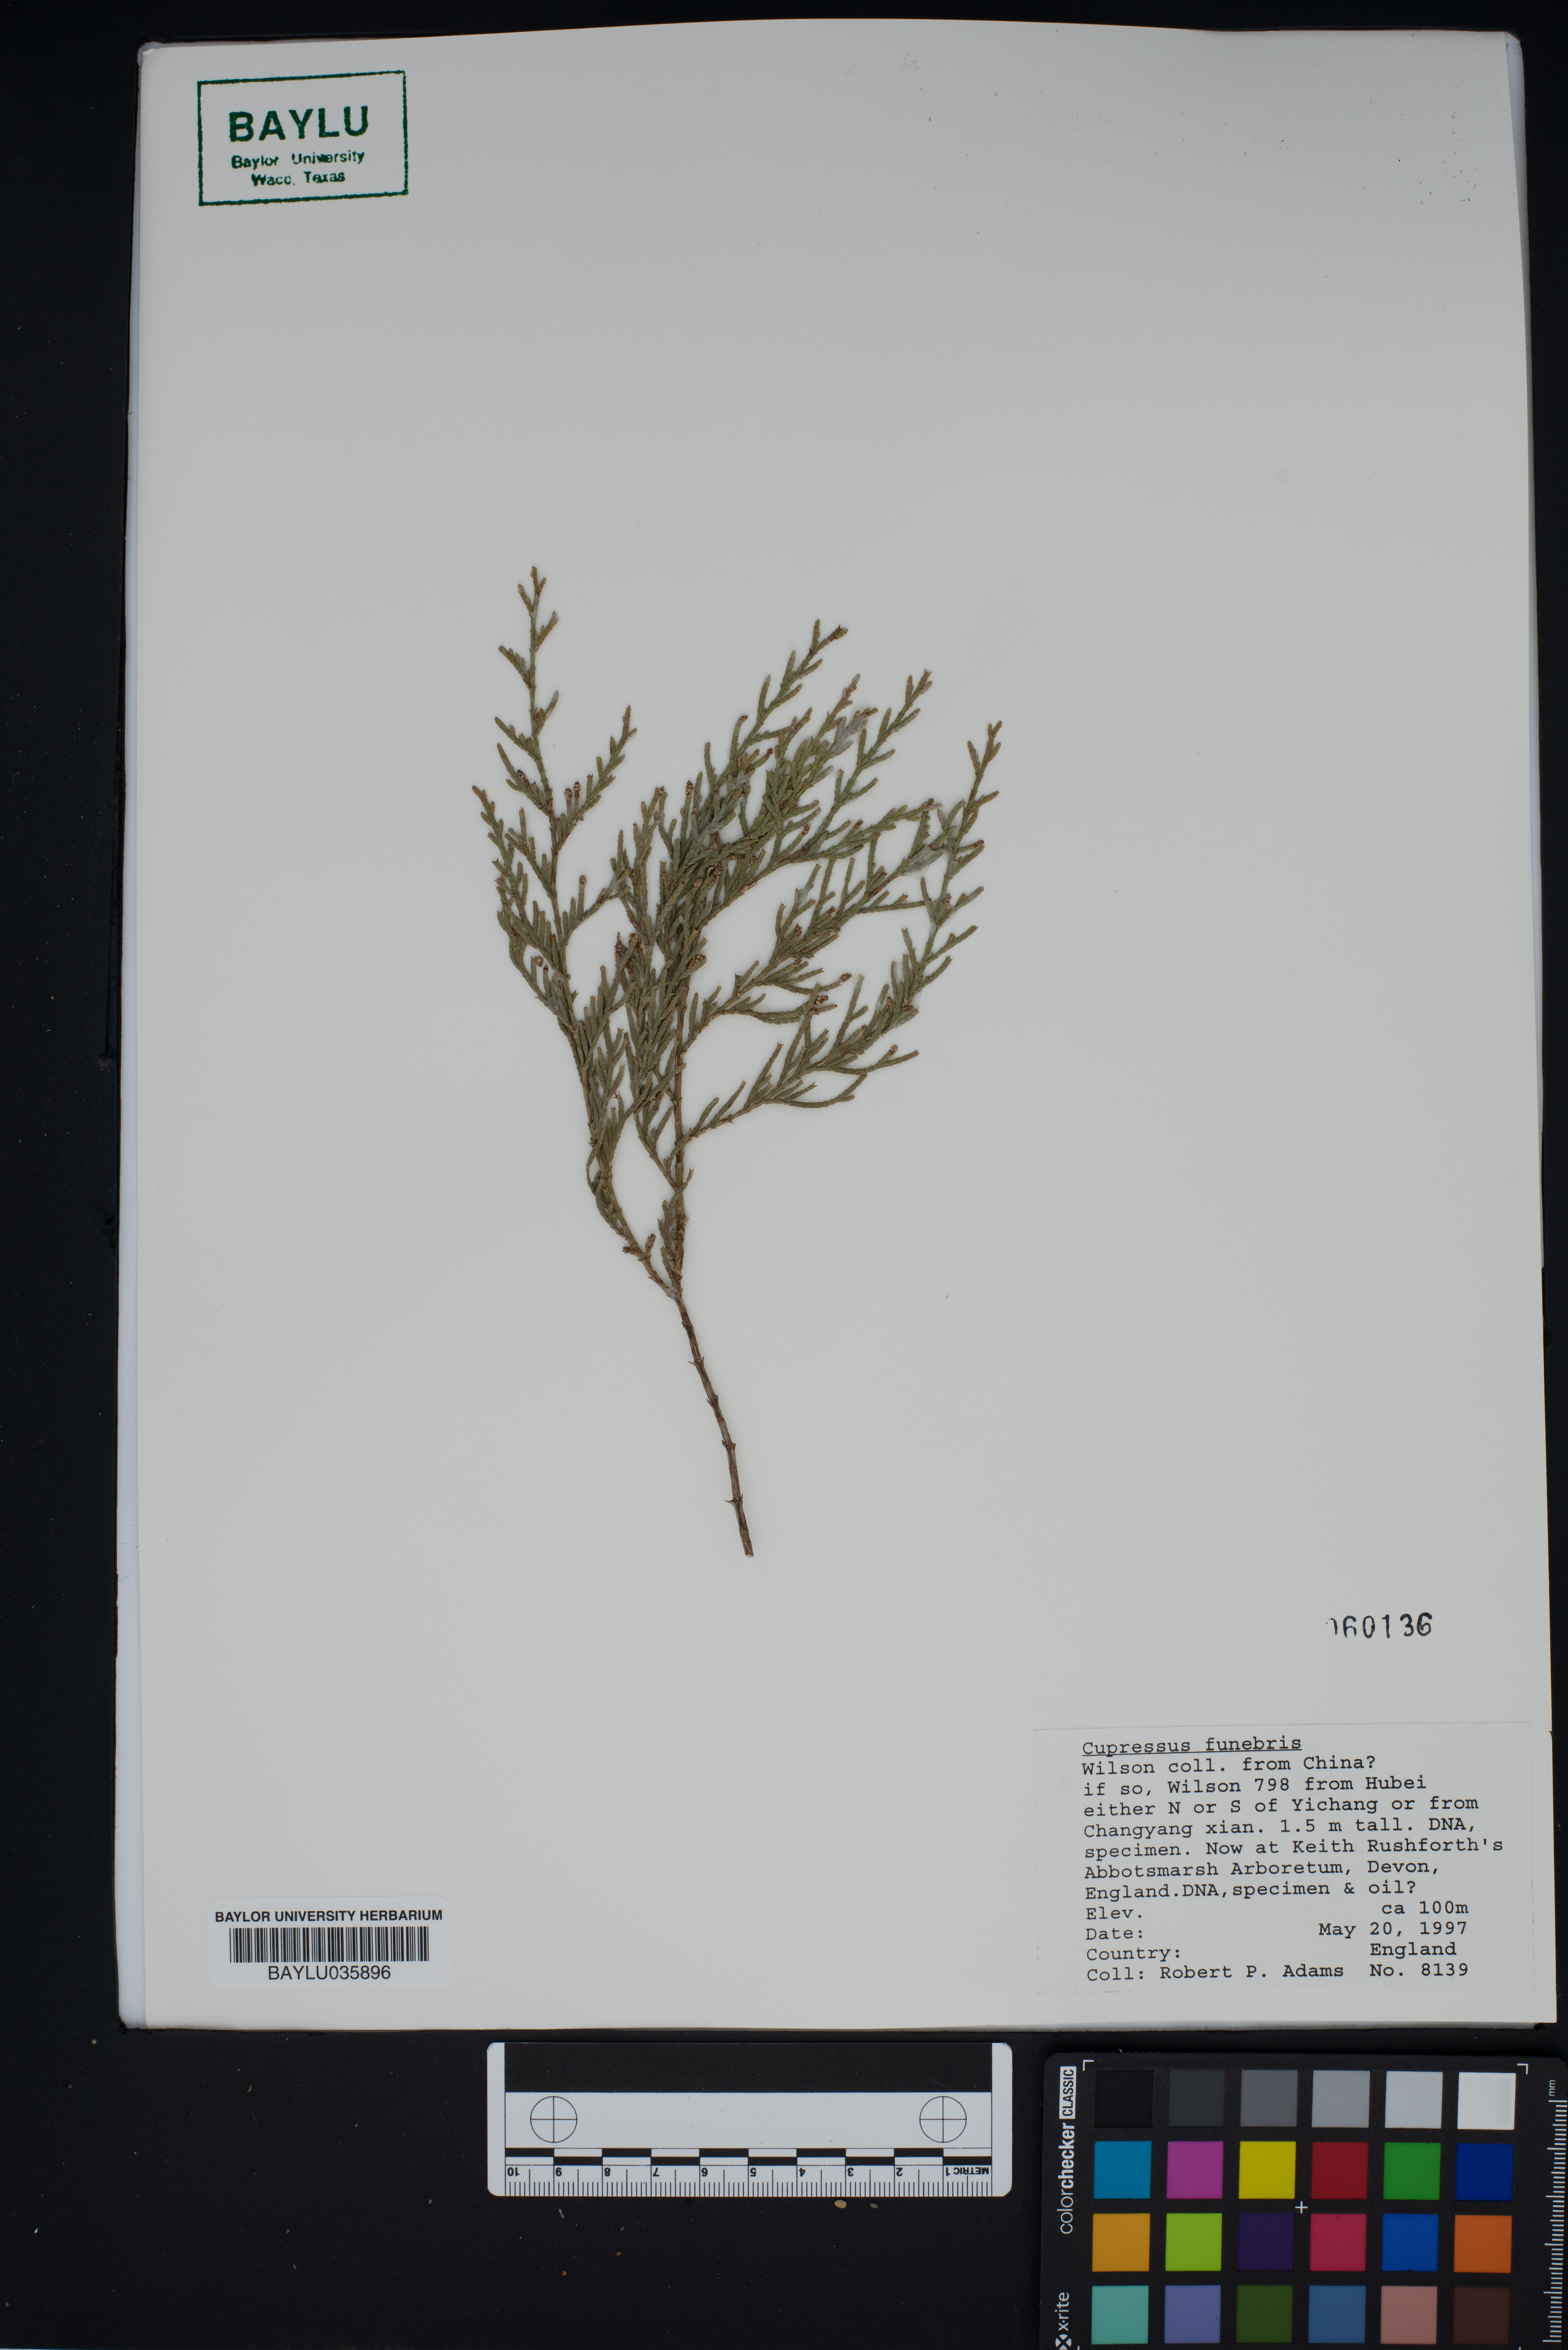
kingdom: Plantae
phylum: Tracheophyta
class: Pinopsida
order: Pinales
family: Cupressaceae
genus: Cupressus
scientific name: Cupressus funebris
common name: Chinese weeping cypress
